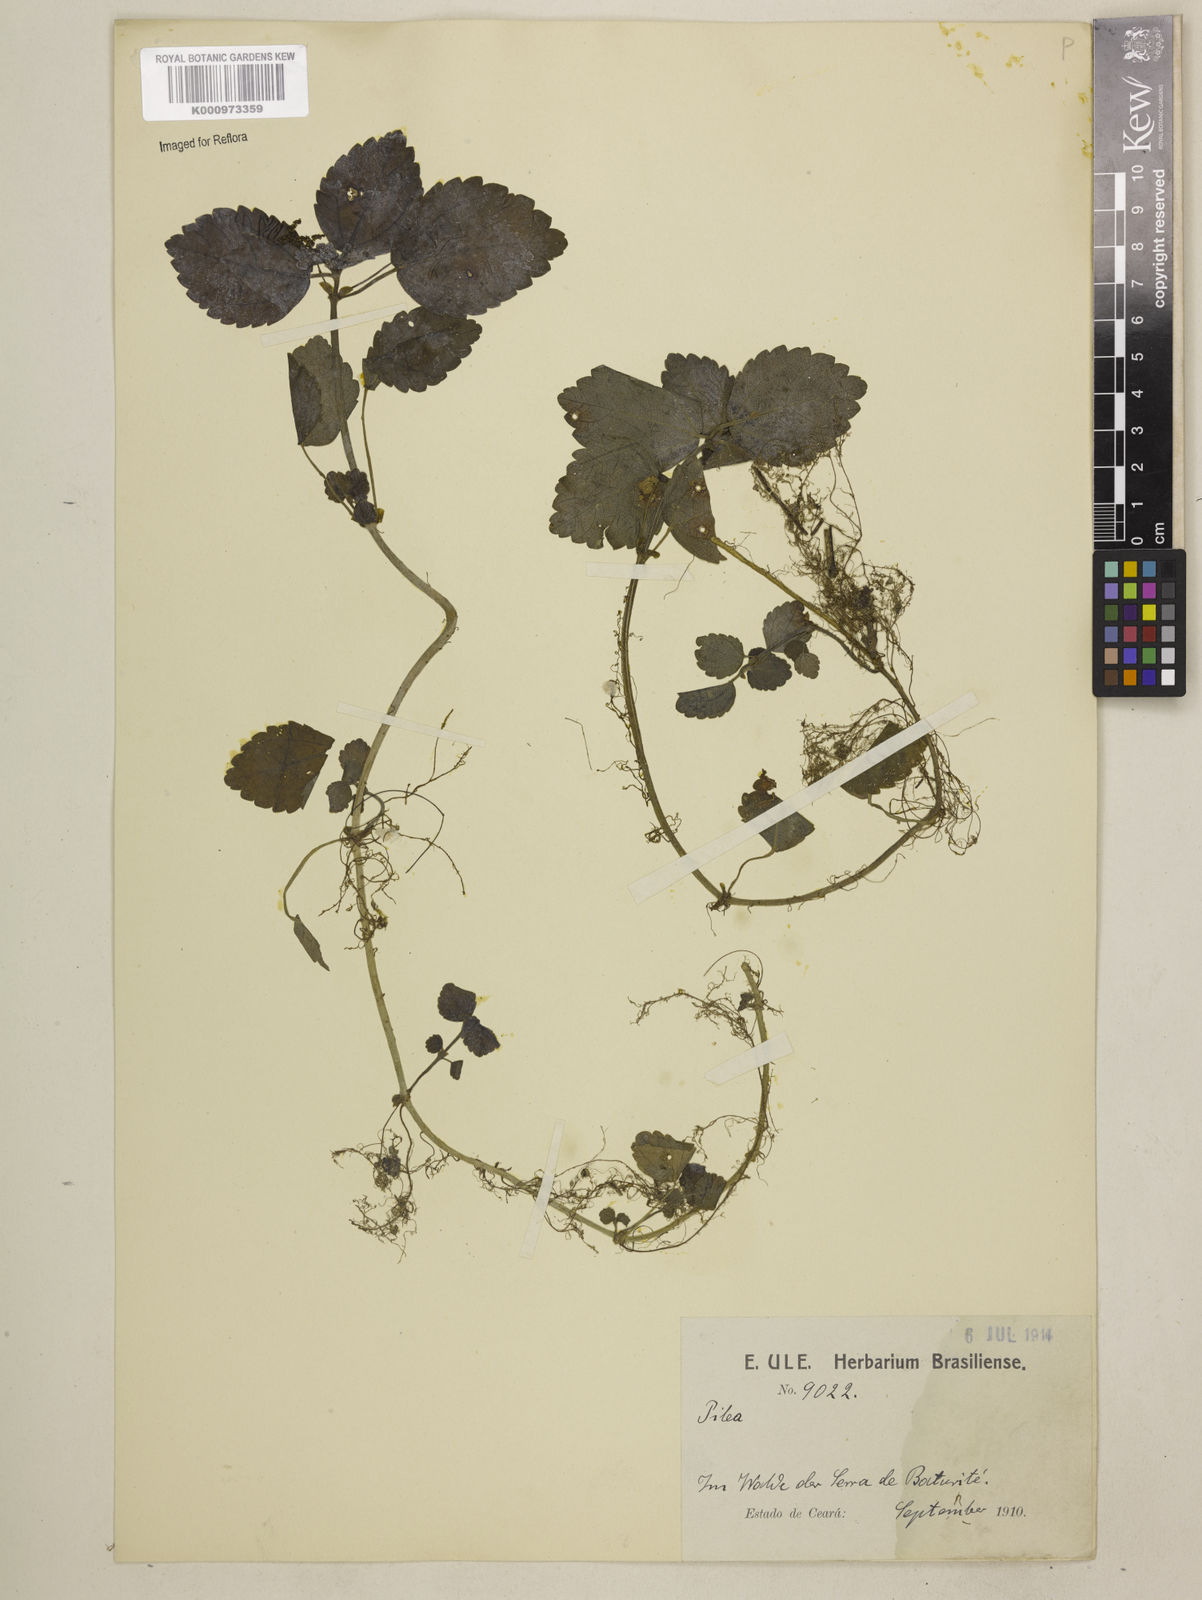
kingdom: Plantae
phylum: Tracheophyta
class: Magnoliopsida
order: Rosales
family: Urticaceae
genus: Pilea
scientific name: Pilea pubescens
